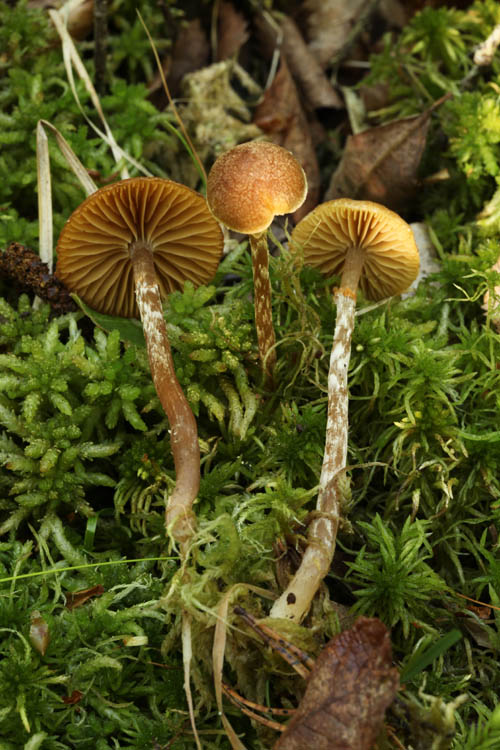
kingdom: Fungi
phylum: Basidiomycota
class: Agaricomycetes
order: Agaricales
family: Hymenogastraceae
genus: Galerina
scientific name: Galerina paludosa
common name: mose-hjelmhat
